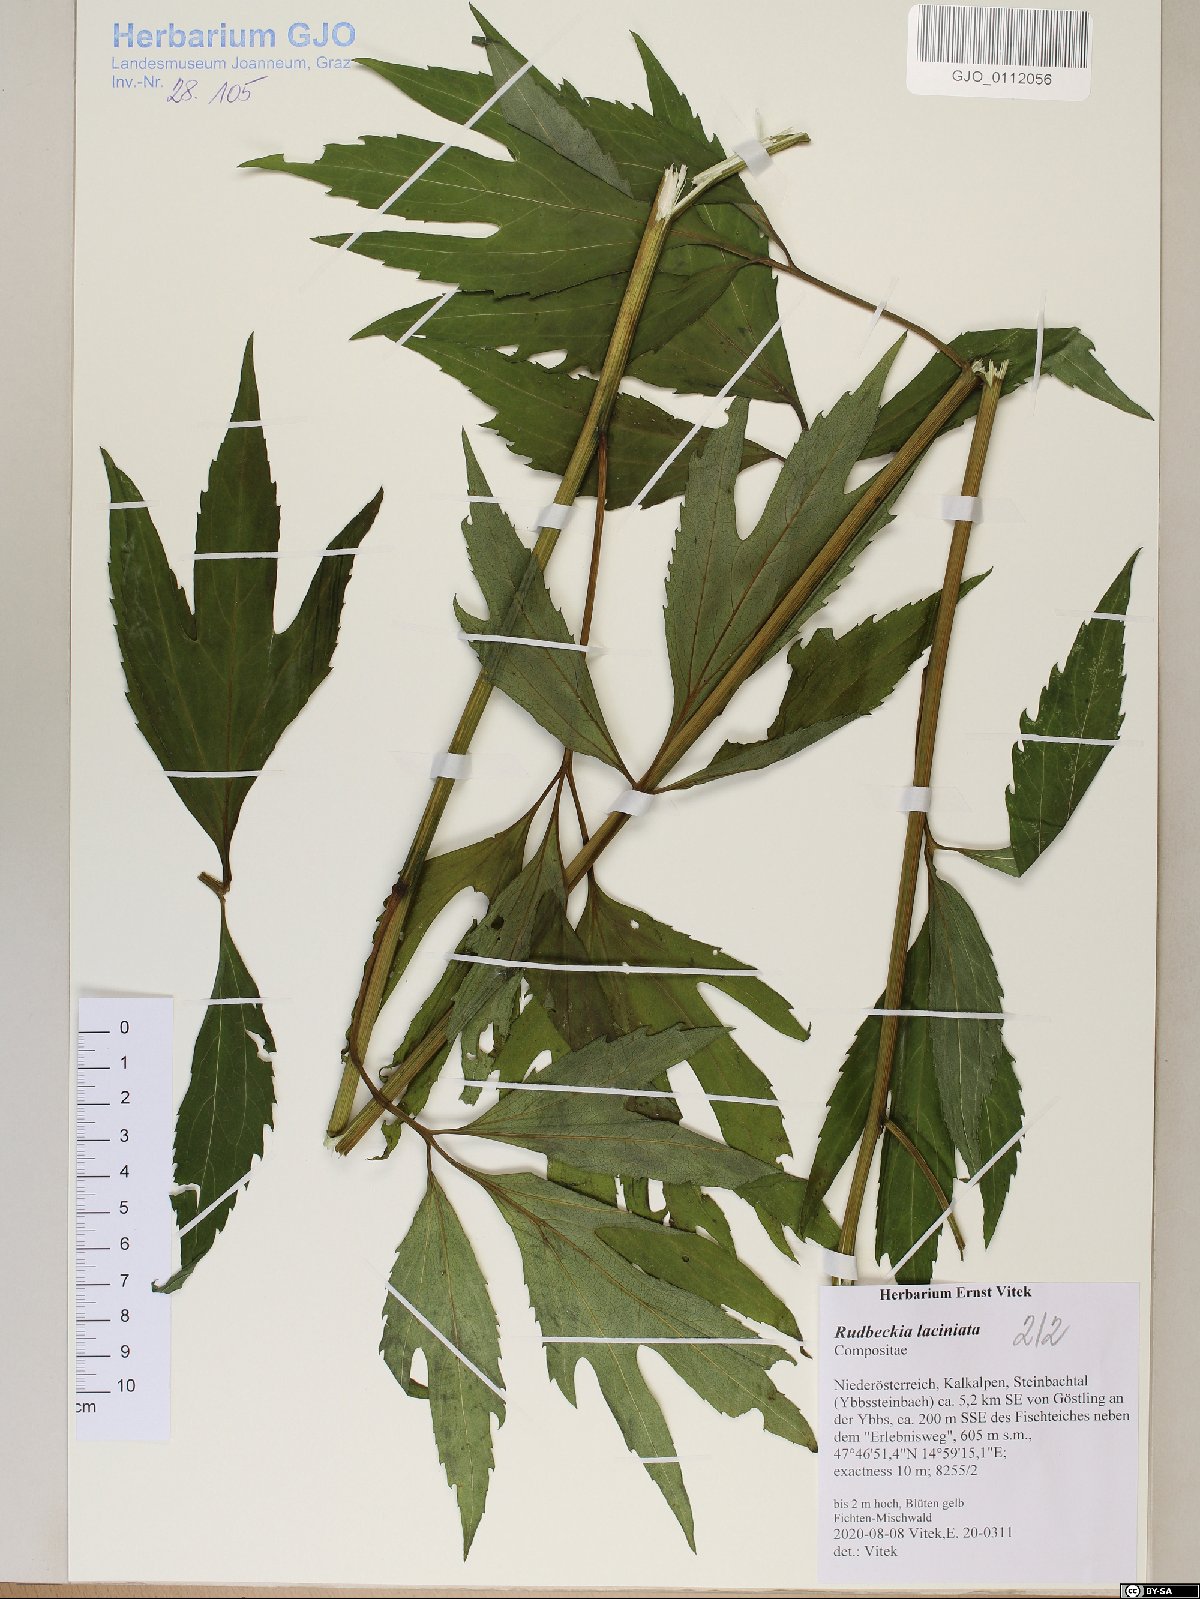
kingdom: Plantae
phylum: Tracheophyta
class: Magnoliopsida
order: Asterales
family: Asteraceae
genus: Rudbeckia
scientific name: Rudbeckia laciniata
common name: Coneflower
